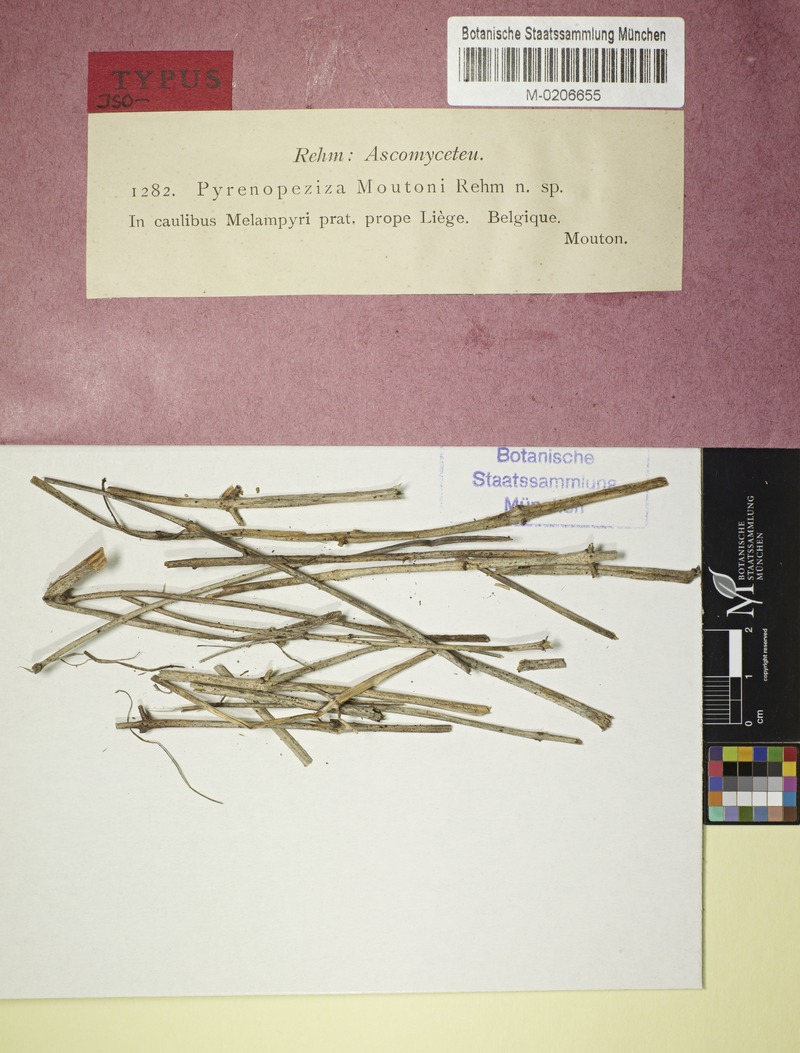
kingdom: Fungi
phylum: Ascomycota
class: Leotiomycetes
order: Helotiales
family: Drepanopezizaceae
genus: Spilopodia
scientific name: Spilopodia moutonii
